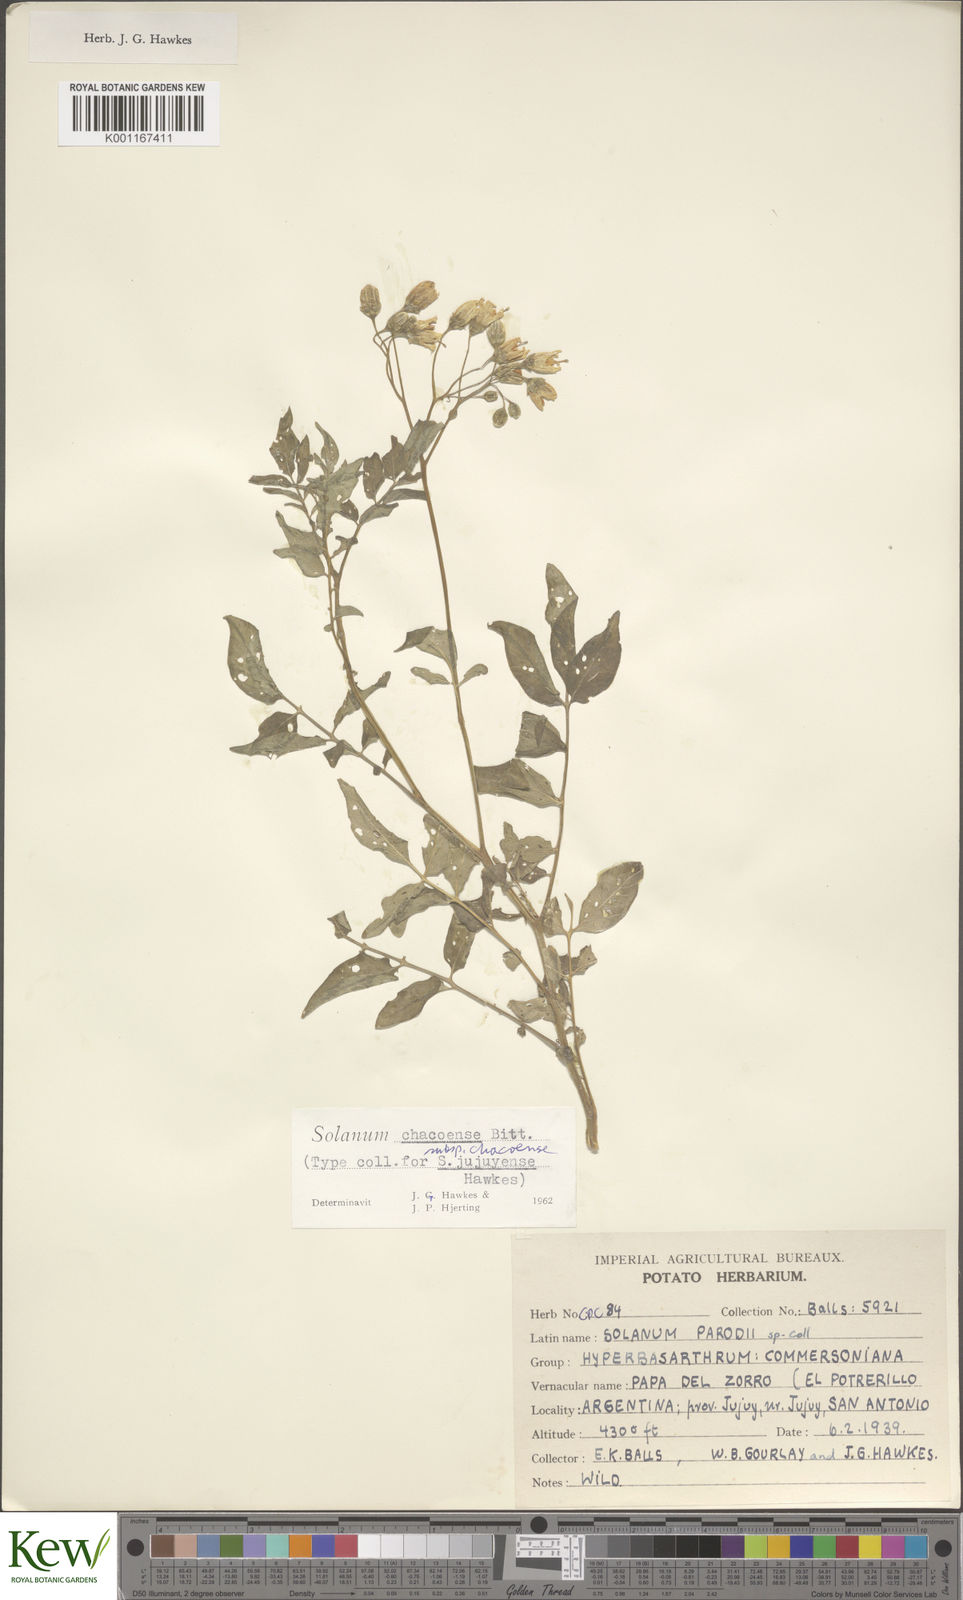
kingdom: Plantae
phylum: Tracheophyta
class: Magnoliopsida
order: Solanales
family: Solanaceae
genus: Solanum
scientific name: Solanum chacoense
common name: Chaco potato
